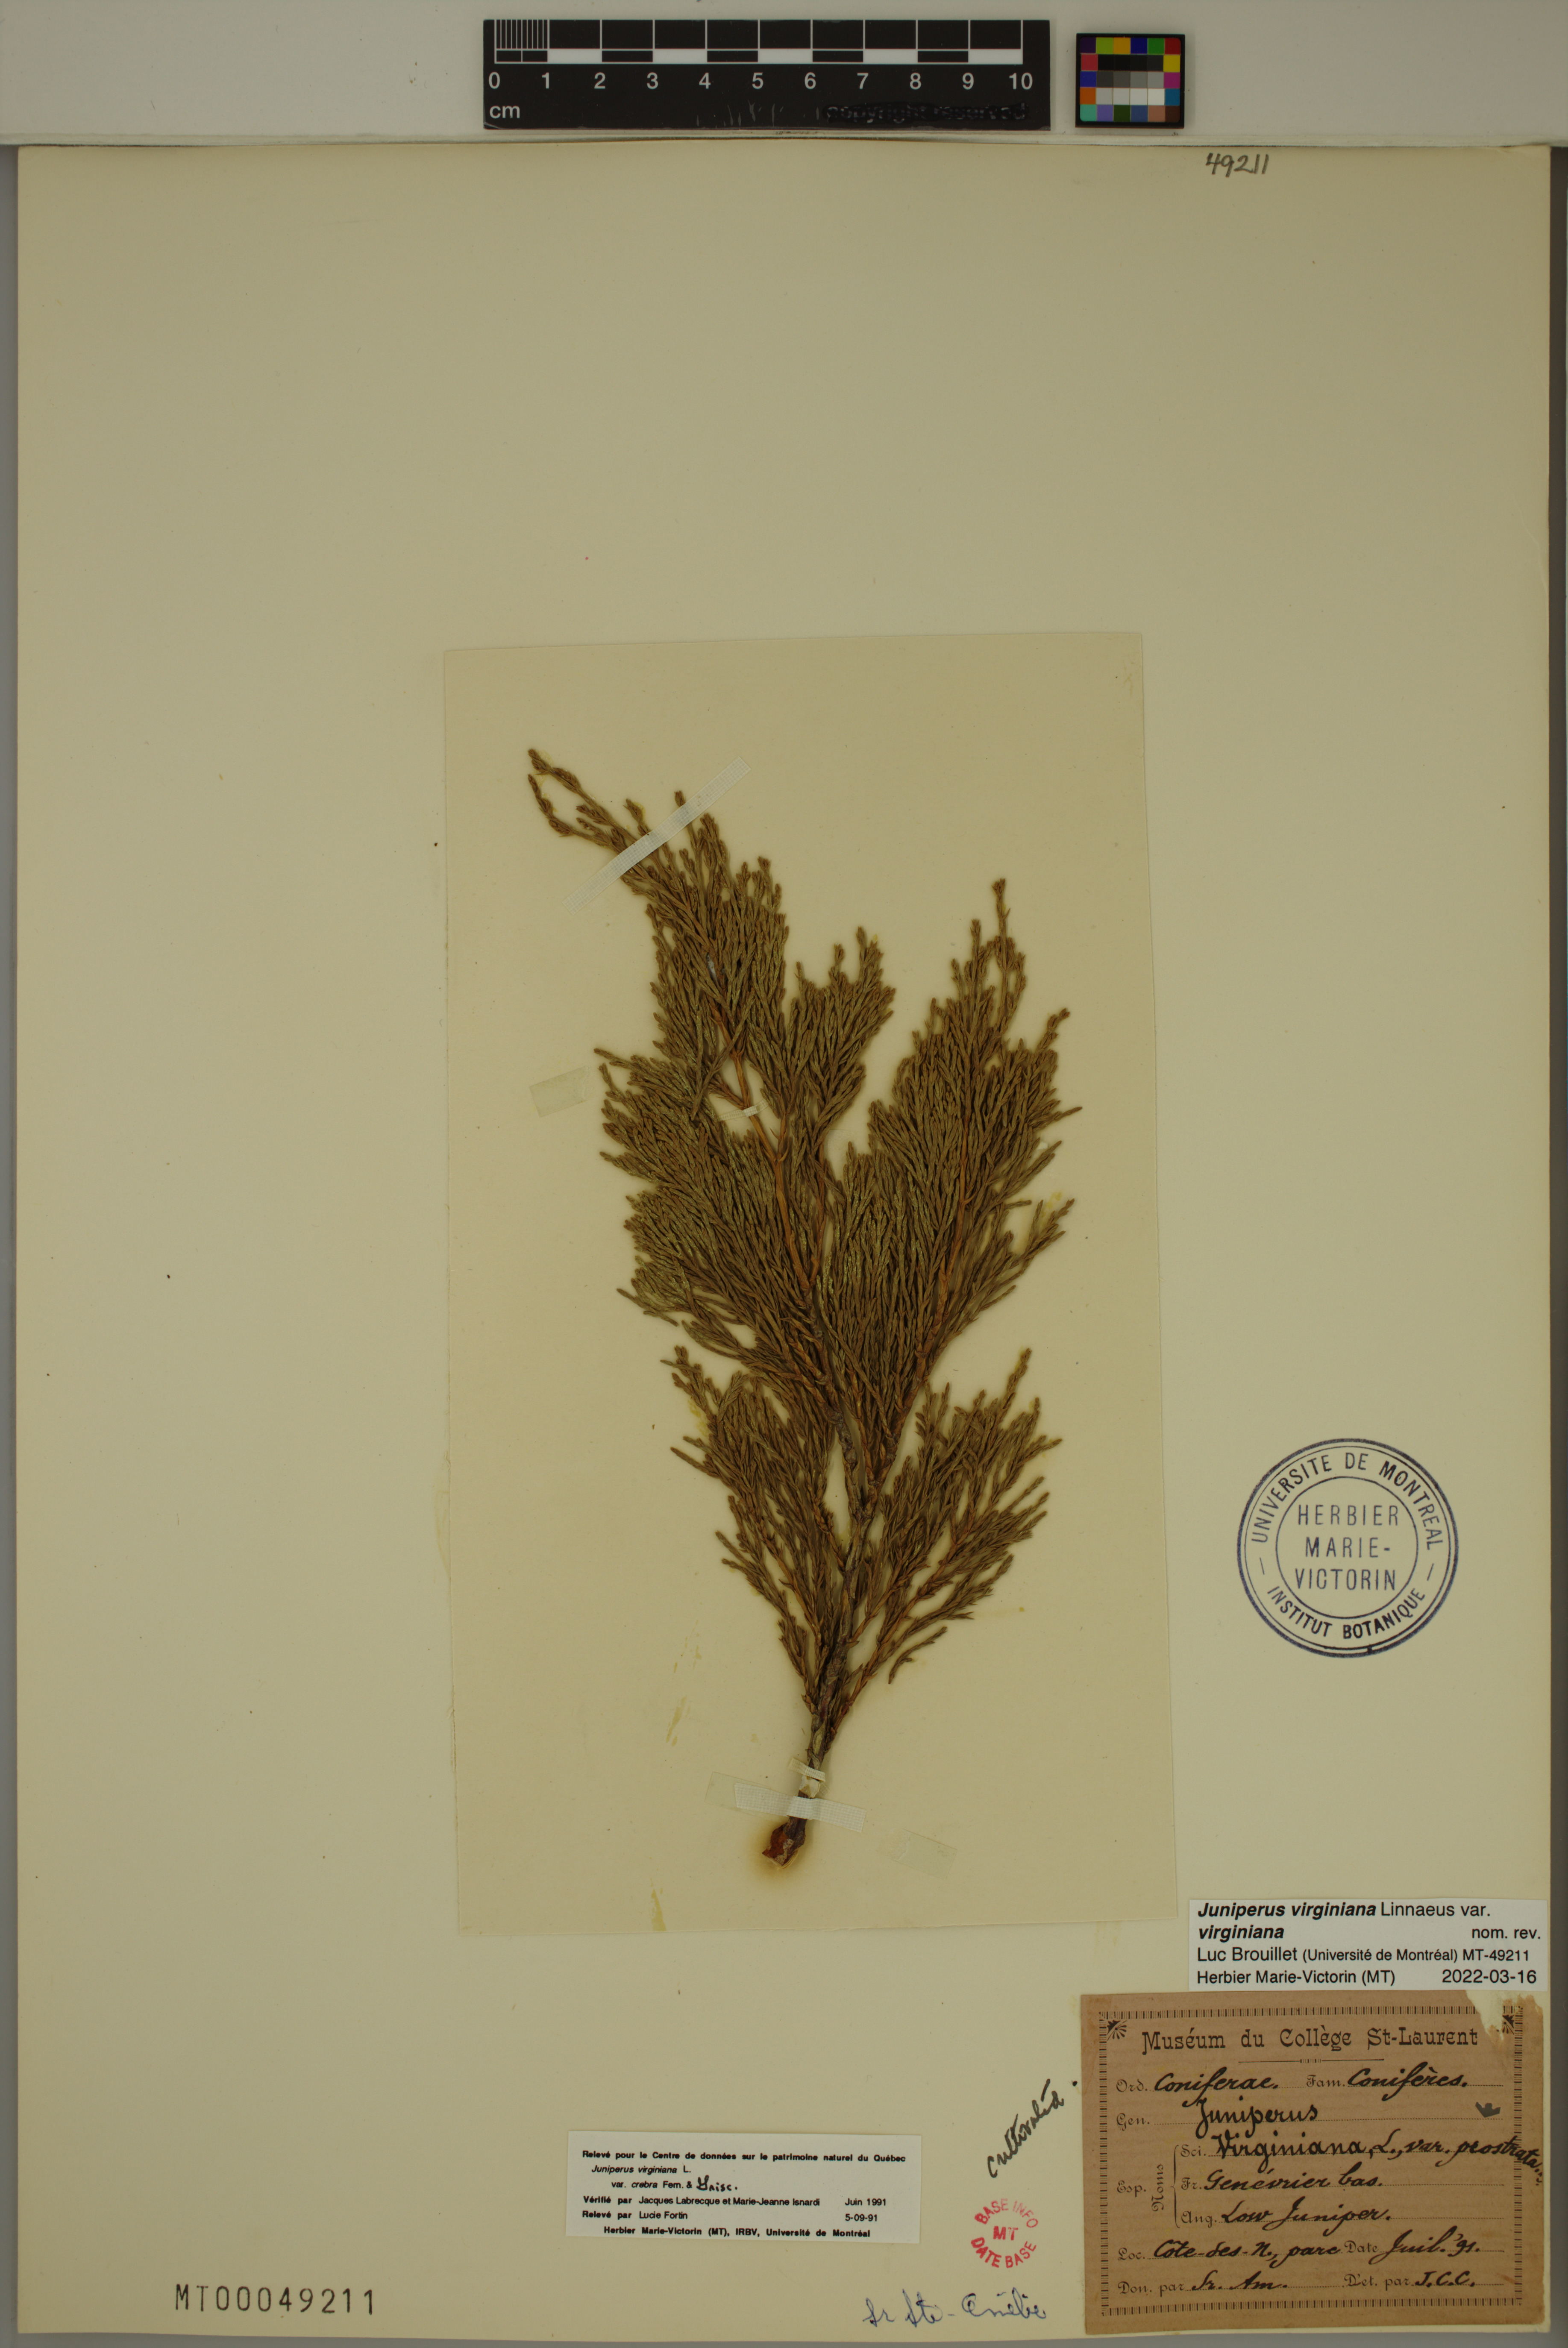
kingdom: Plantae
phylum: Tracheophyta
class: Pinopsida
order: Pinales
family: Cupressaceae
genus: Juniperus
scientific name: Juniperus virginiana
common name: Red juniper
